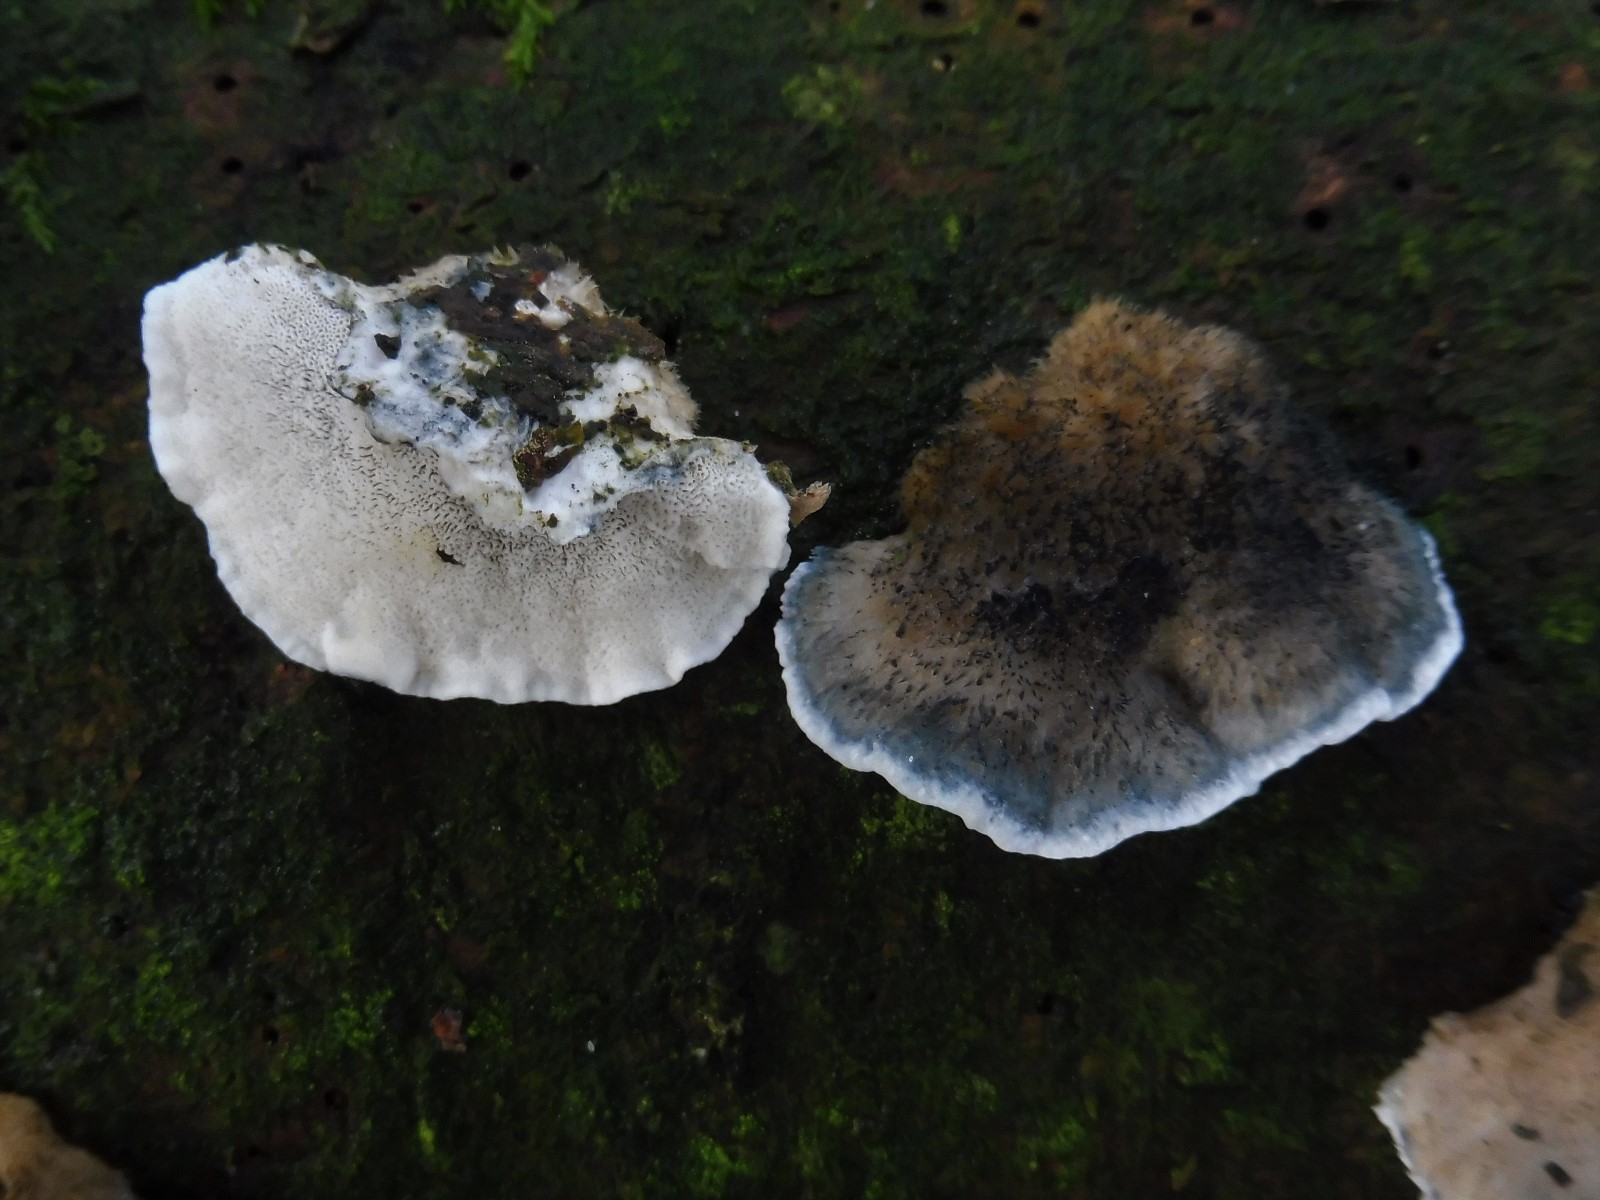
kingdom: Fungi
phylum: Basidiomycota
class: Agaricomycetes
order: Polyporales
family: Polyporaceae
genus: Cyanosporus
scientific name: Cyanosporus caesius
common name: blålig kødporesvamp
